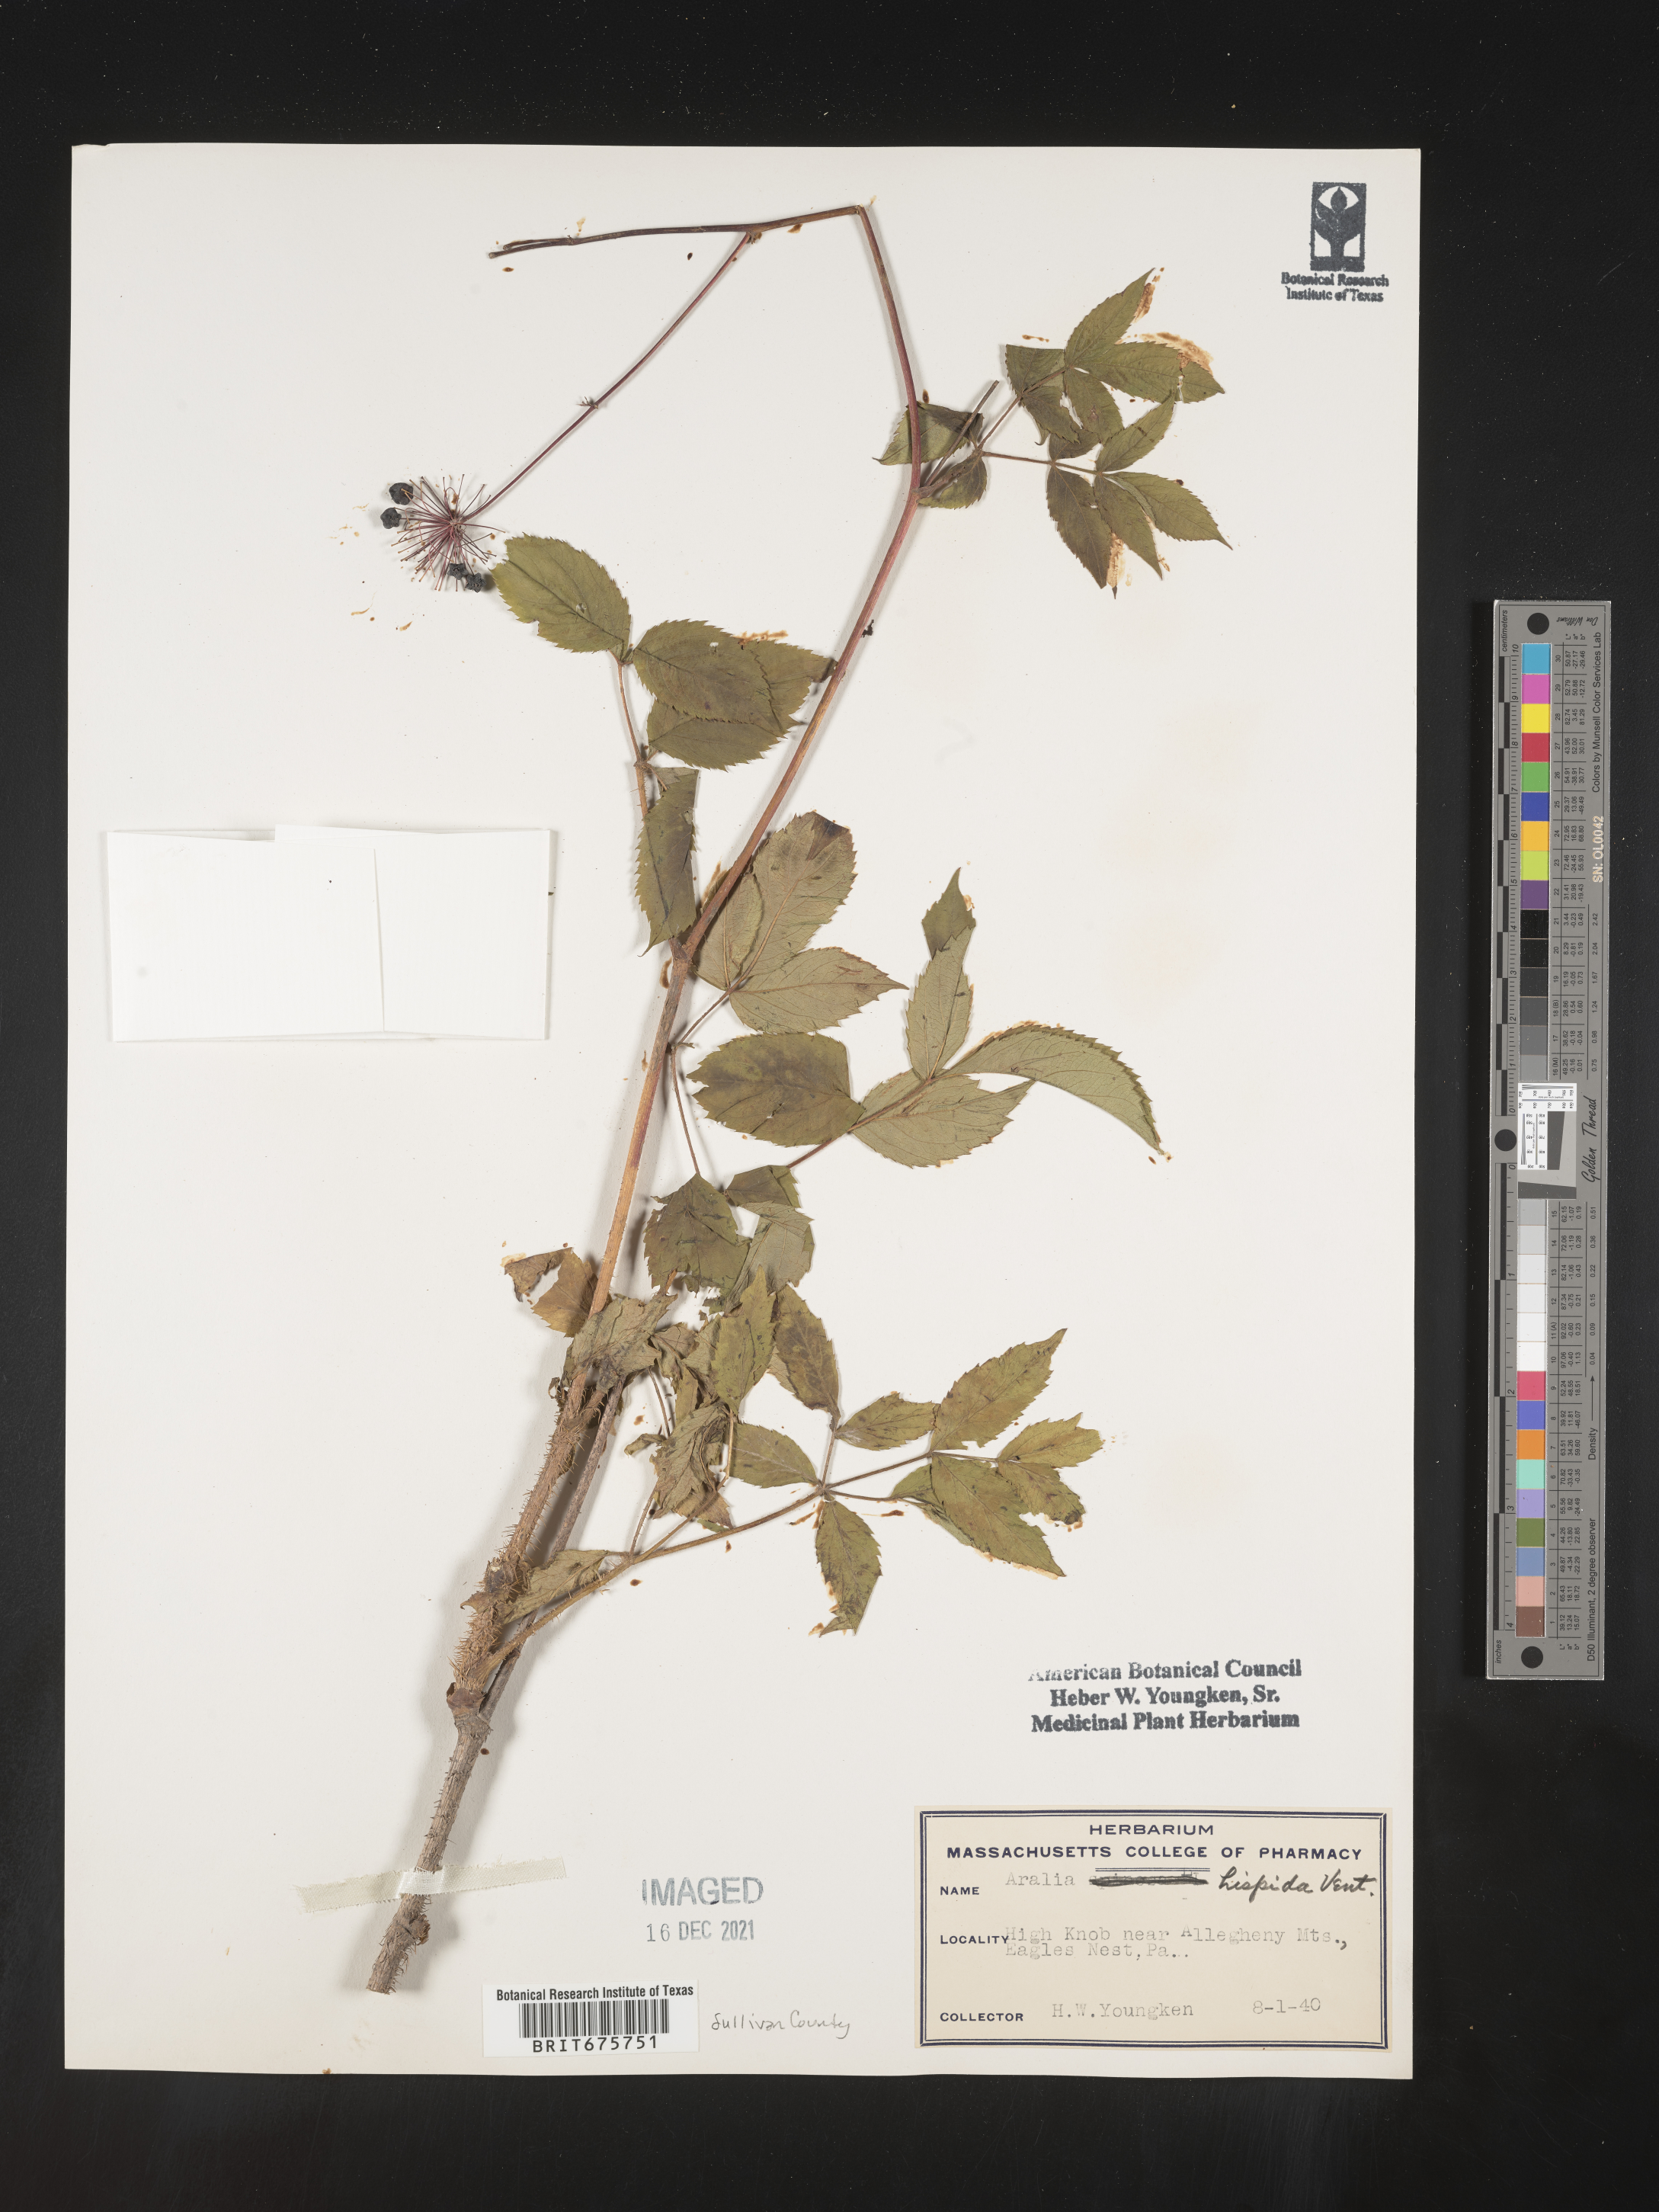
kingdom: Plantae
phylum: Tracheophyta
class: Magnoliopsida
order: Apiales
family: Araliaceae
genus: Aralia
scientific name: Aralia hispida
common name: Bristly sarsaparilla
